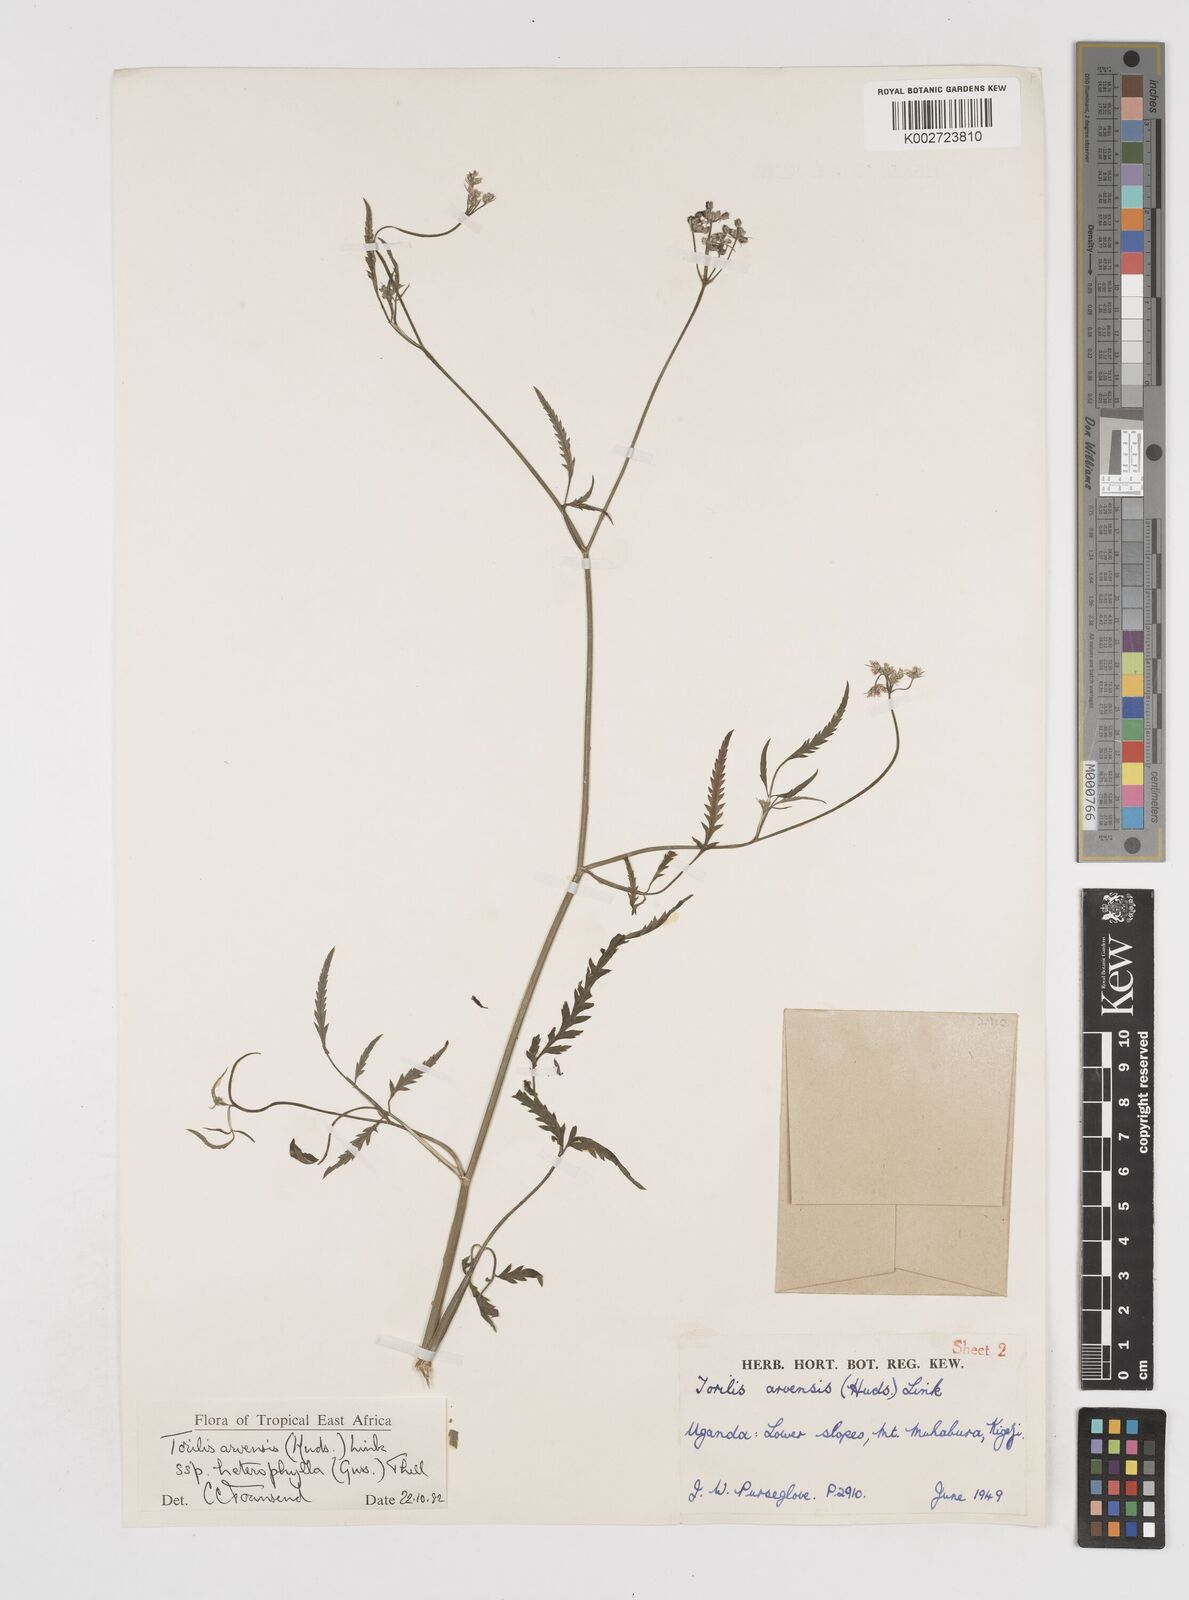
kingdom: Plantae
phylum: Tracheophyta
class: Magnoliopsida
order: Apiales
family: Apiaceae
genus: Torilis
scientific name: Torilis arvensis
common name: Spreading hedge-parsley
